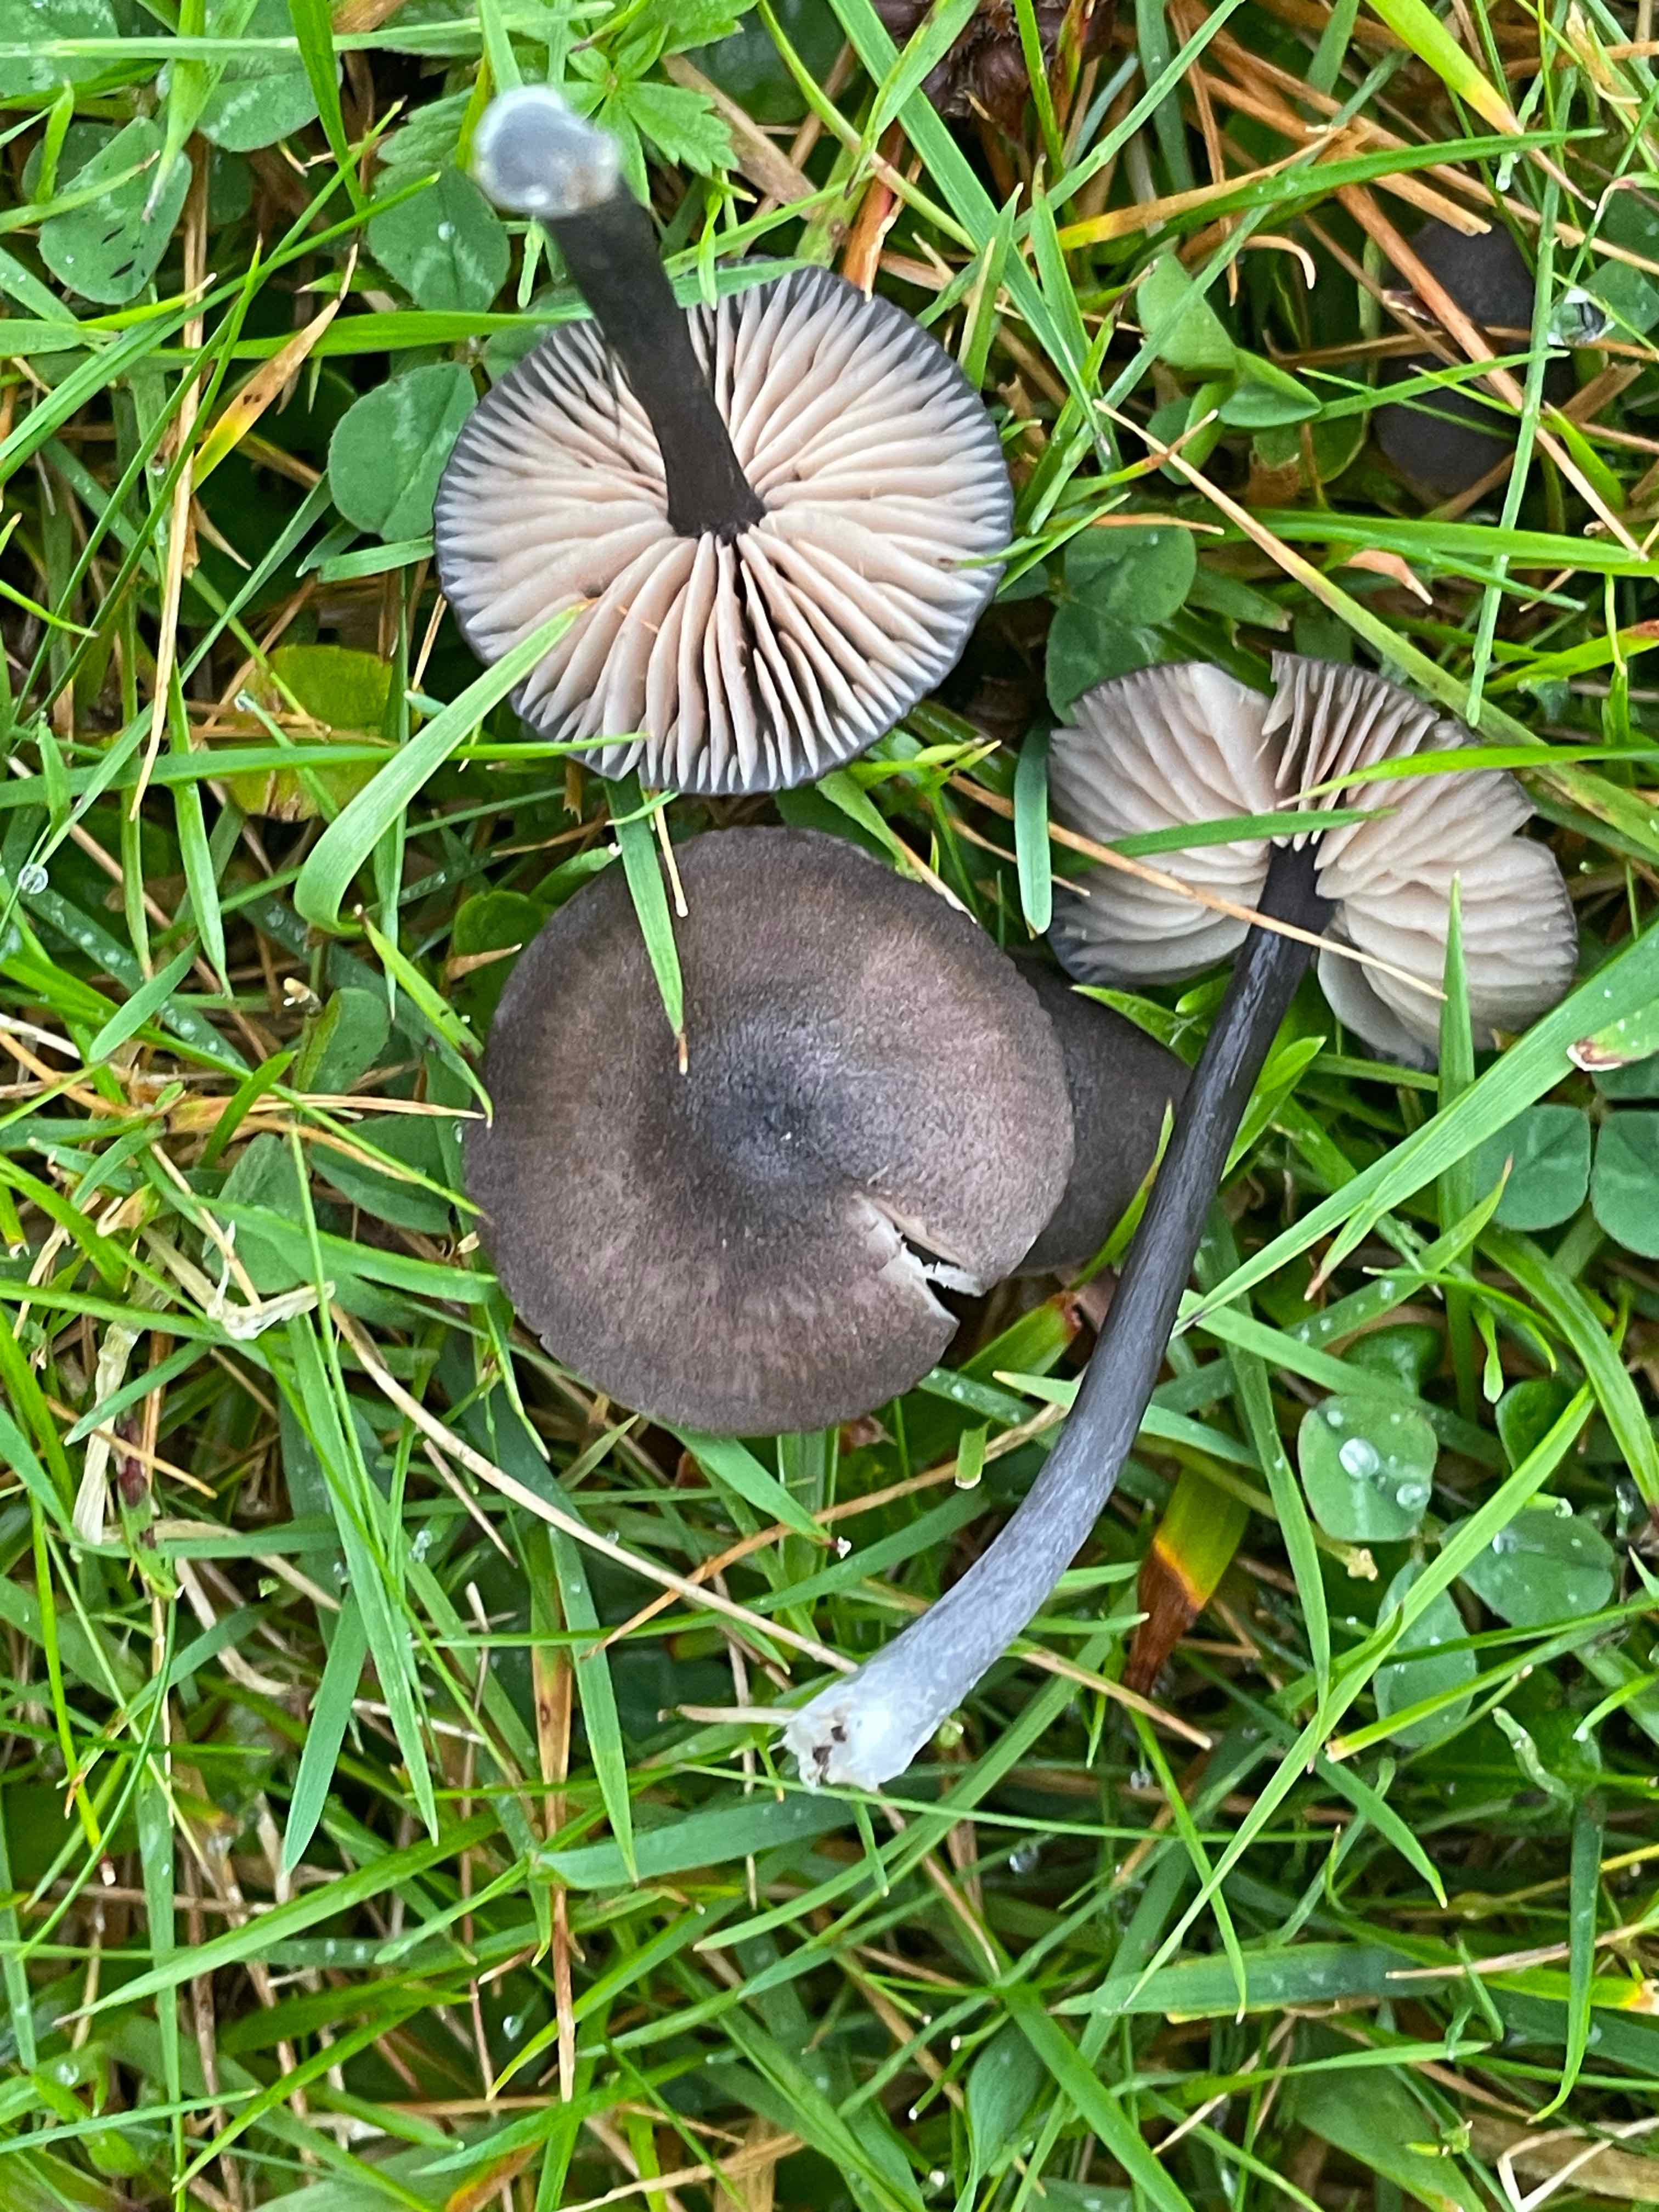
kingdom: Fungi
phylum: Basidiomycota
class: Agaricomycetes
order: Agaricales
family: Entolomataceae
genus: Entoloma
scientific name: Entoloma
